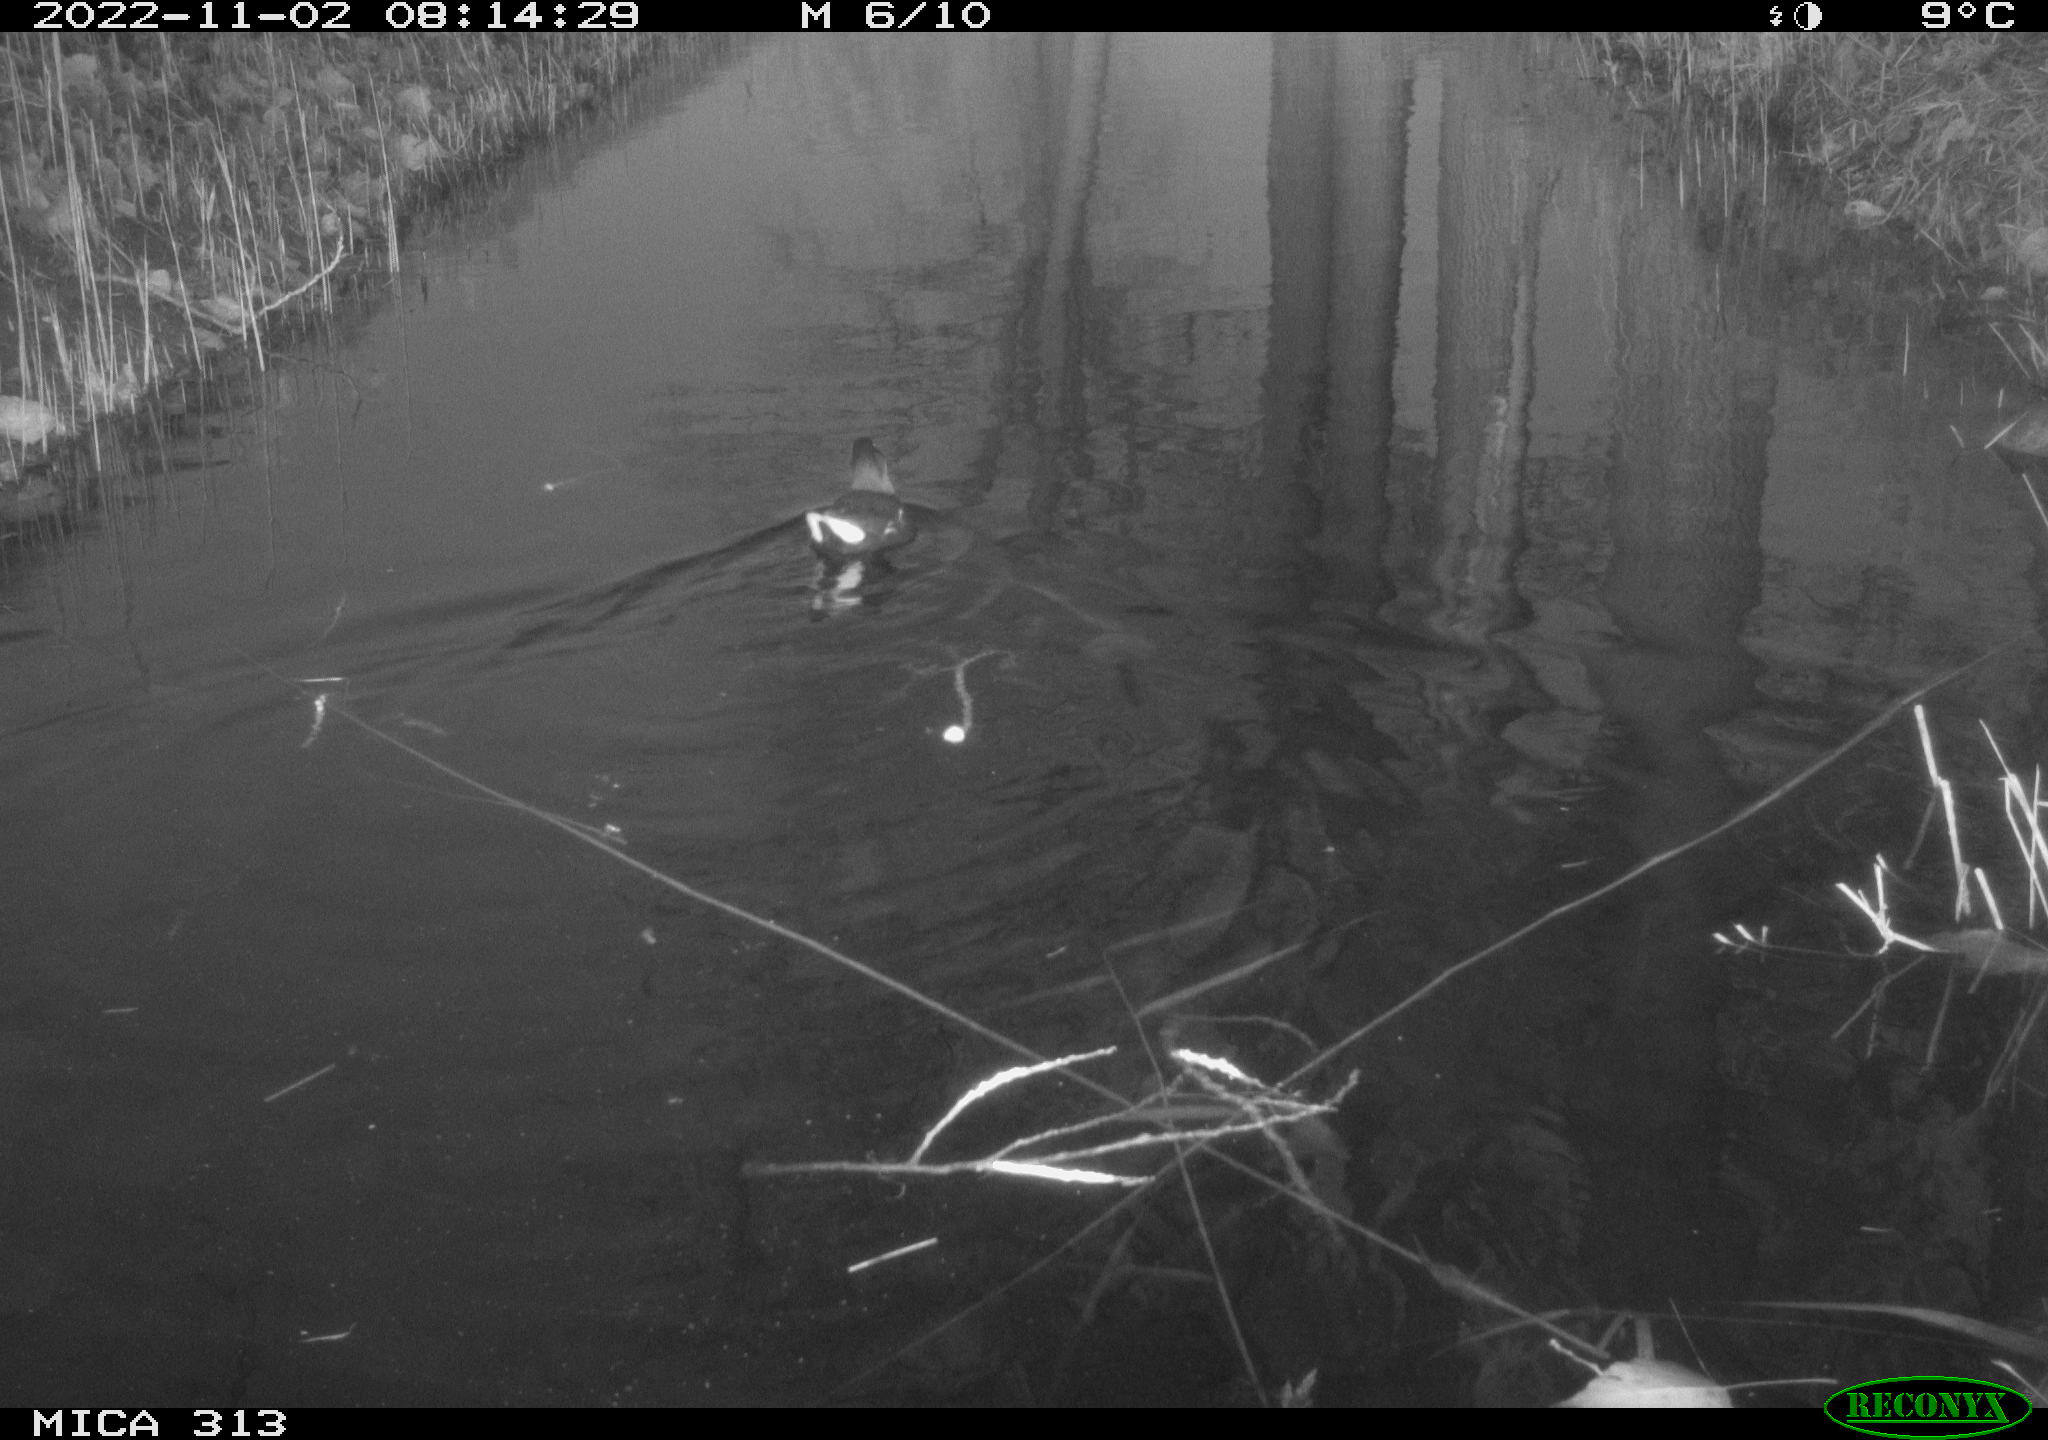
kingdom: Animalia
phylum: Chordata
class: Aves
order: Gruiformes
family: Rallidae
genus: Gallinula
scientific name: Gallinula chloropus
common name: Common moorhen
